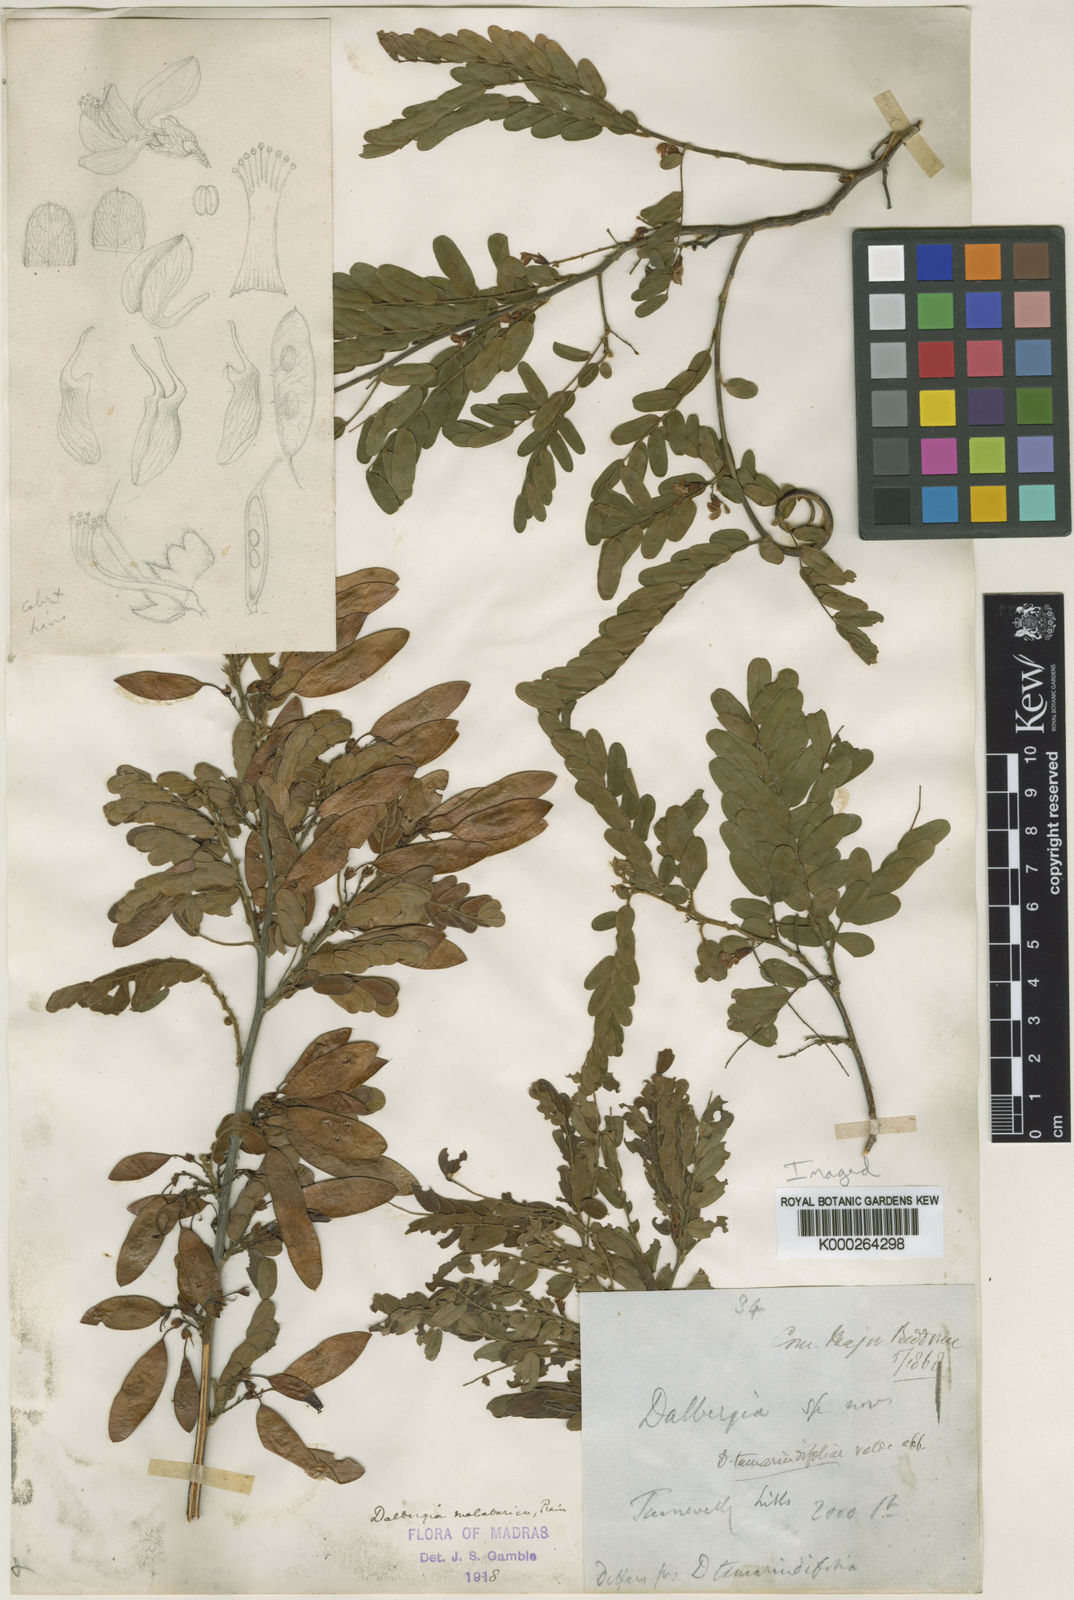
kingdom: Plantae
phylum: Tracheophyta
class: Magnoliopsida
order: Fabales
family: Fabaceae
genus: Dalbergia
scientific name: Dalbergia malabarica
